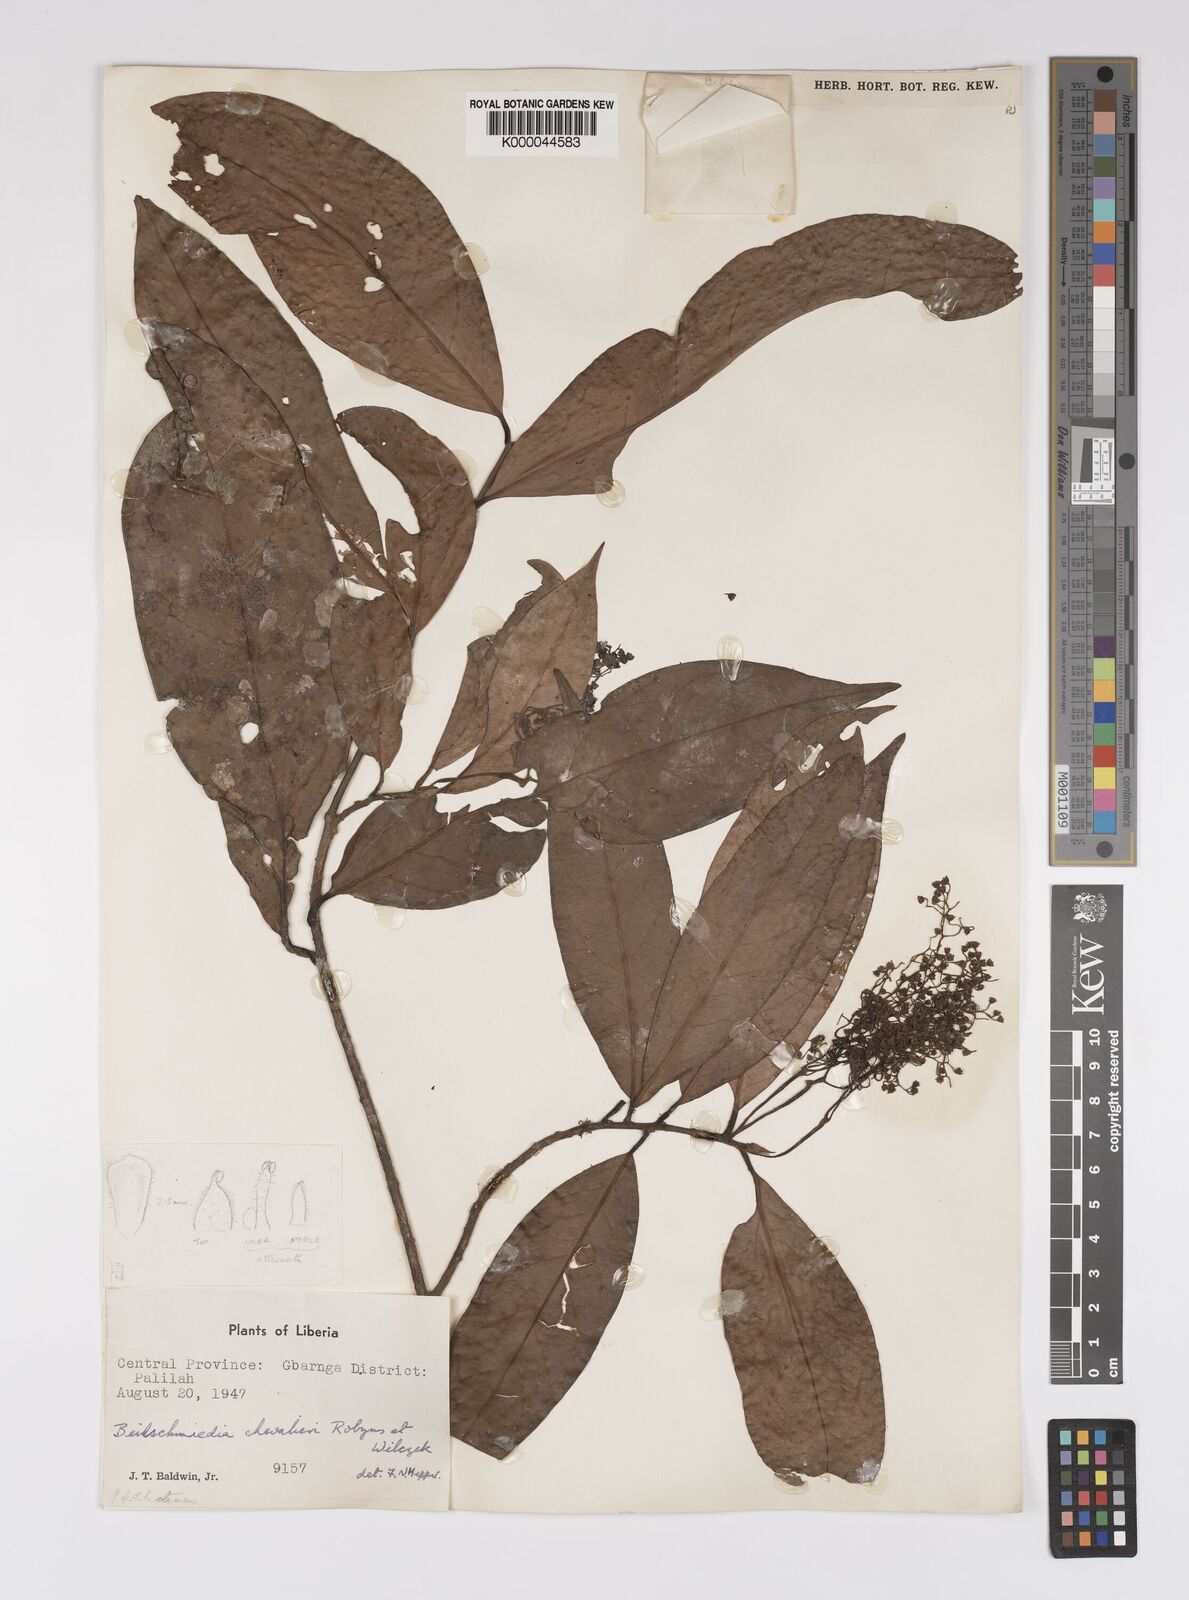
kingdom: Plantae
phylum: Tracheophyta
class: Magnoliopsida
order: Laurales
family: Lauraceae
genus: Beilschmiedia
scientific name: Beilschmiedia chevalieri
